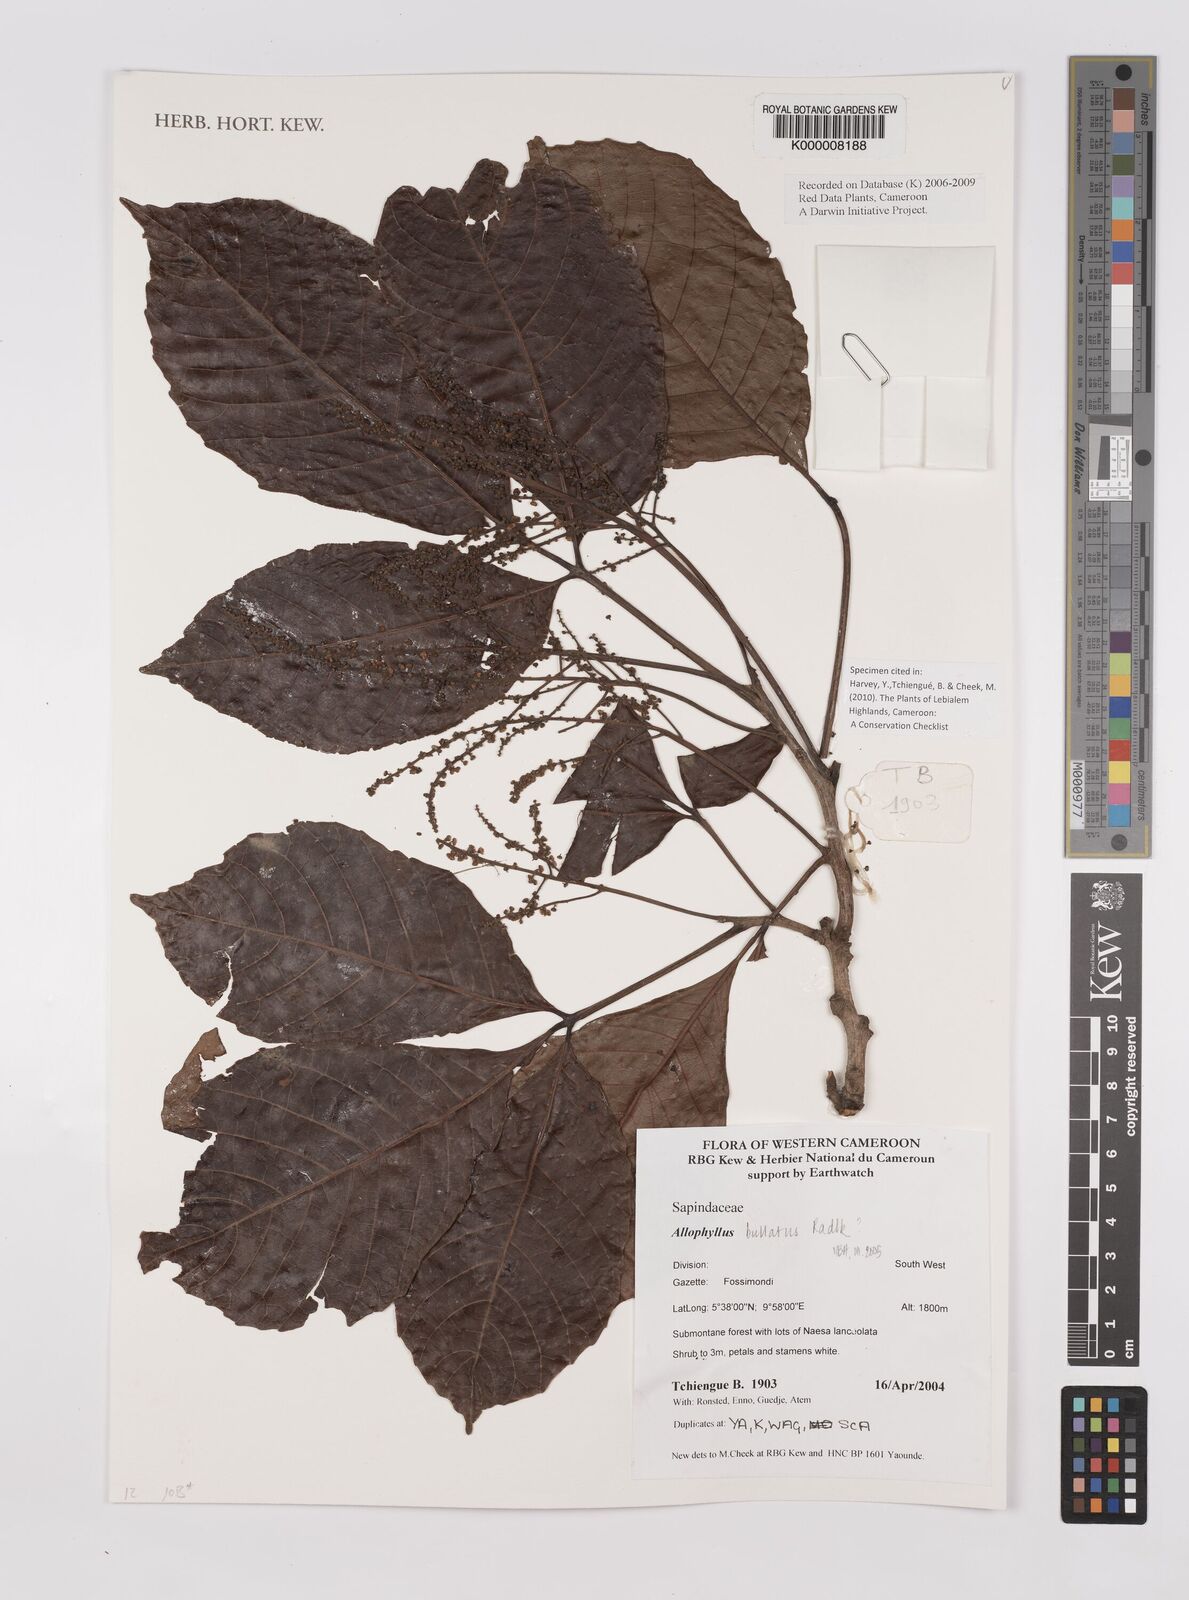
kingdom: Plantae
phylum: Tracheophyta
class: Magnoliopsida
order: Sapindales
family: Sapindaceae
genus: Allophylus
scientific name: Allophylus bullatus
